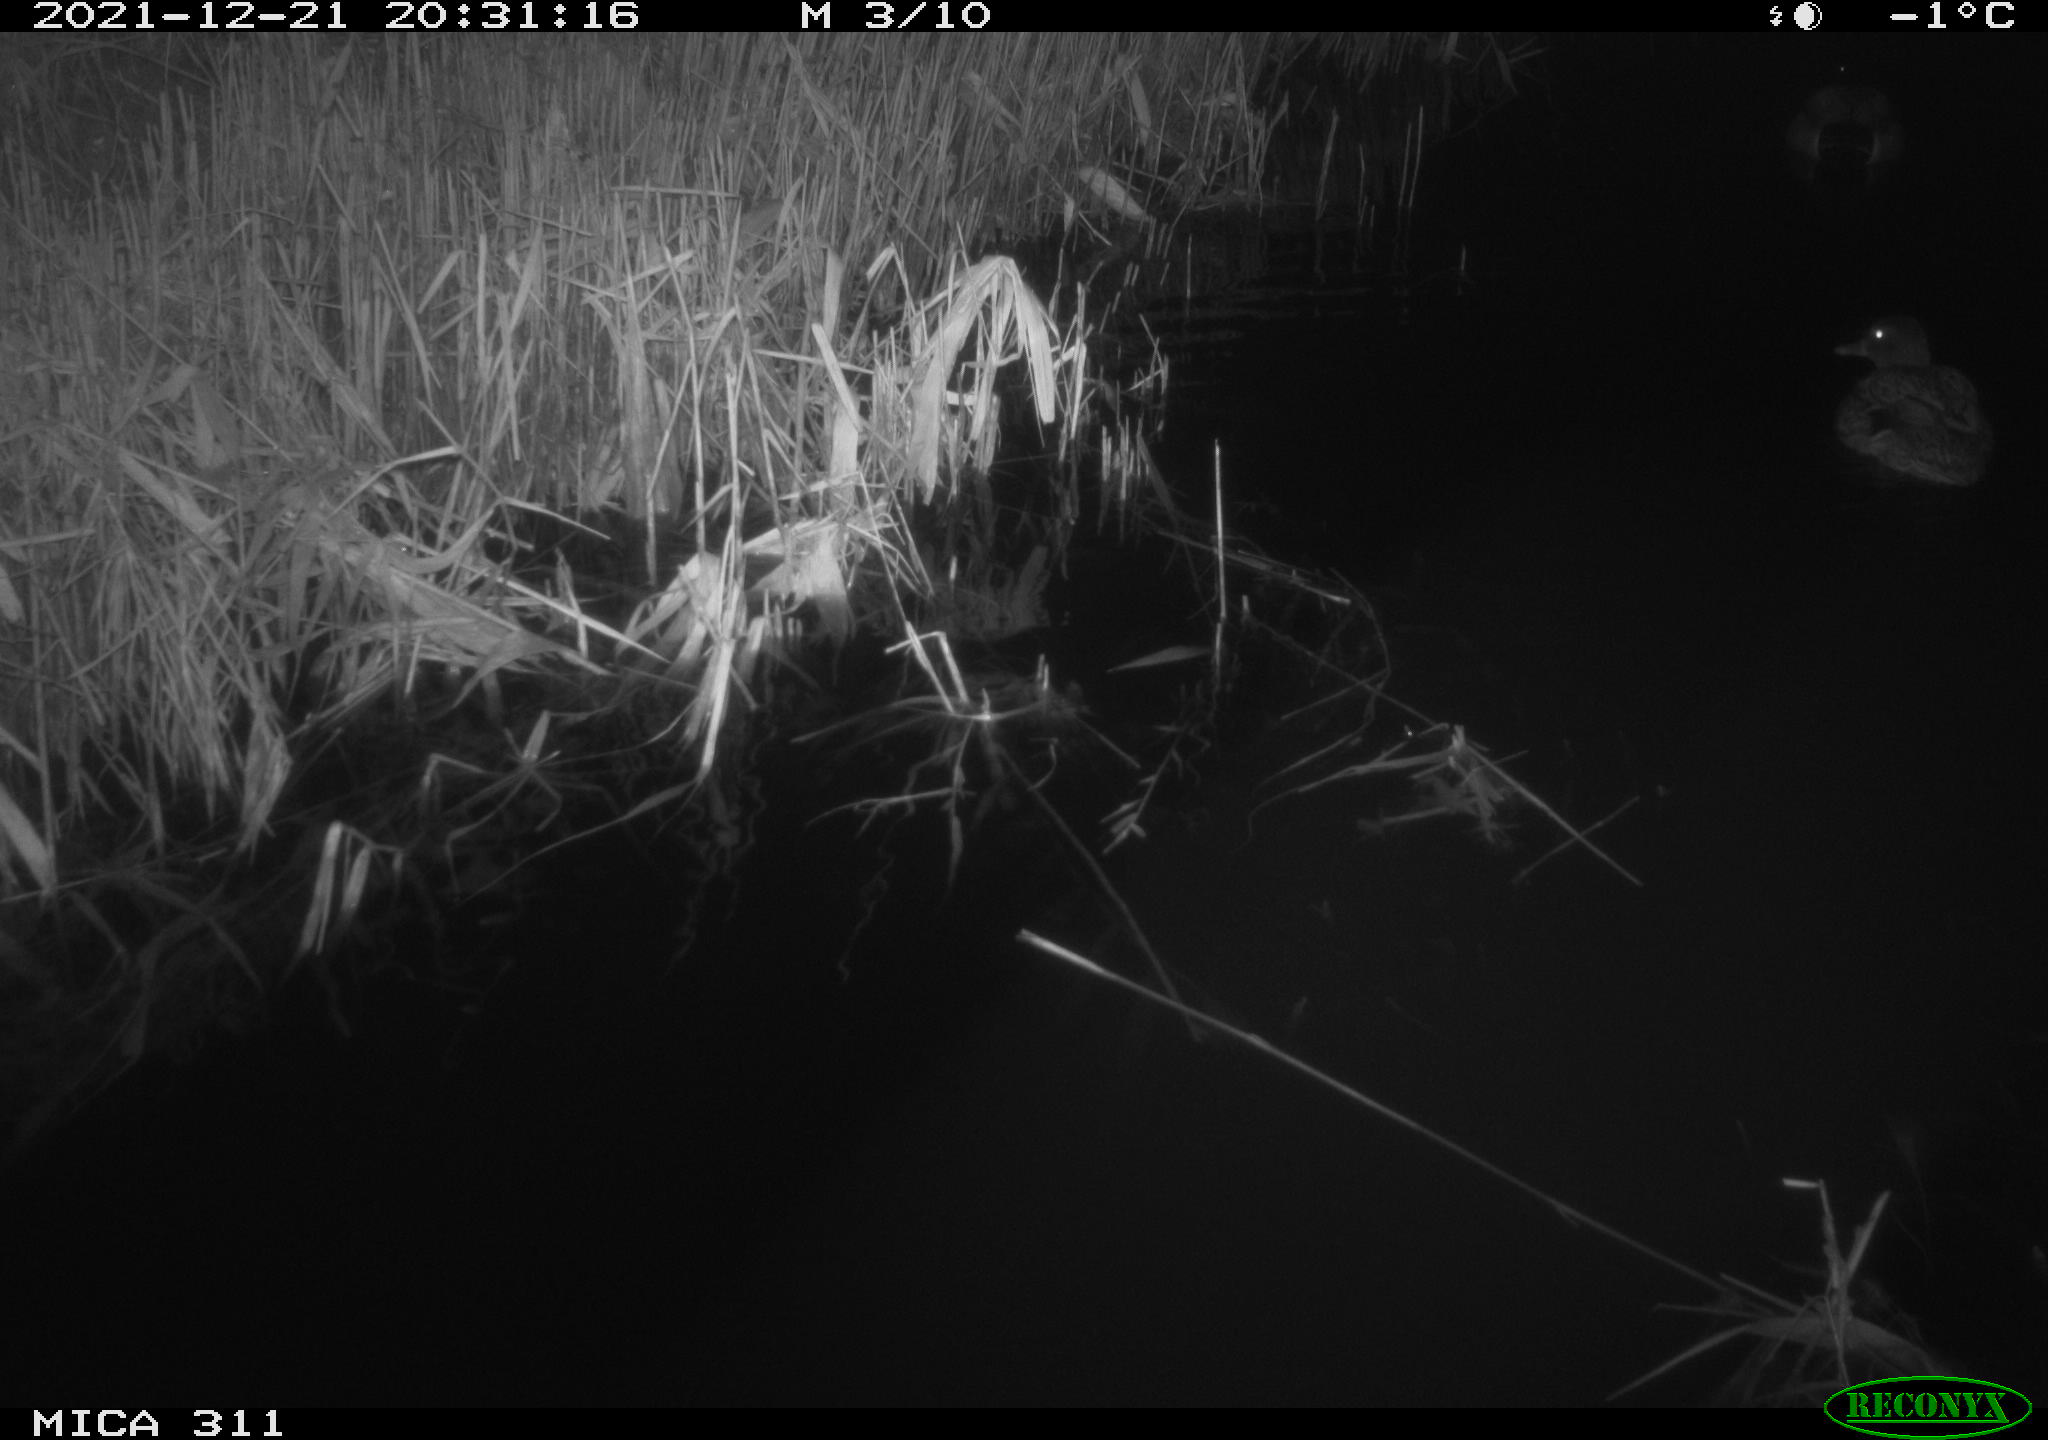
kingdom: Animalia
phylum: Chordata
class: Aves
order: Anseriformes
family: Anatidae
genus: Anas
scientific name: Anas platyrhynchos
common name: Mallard
